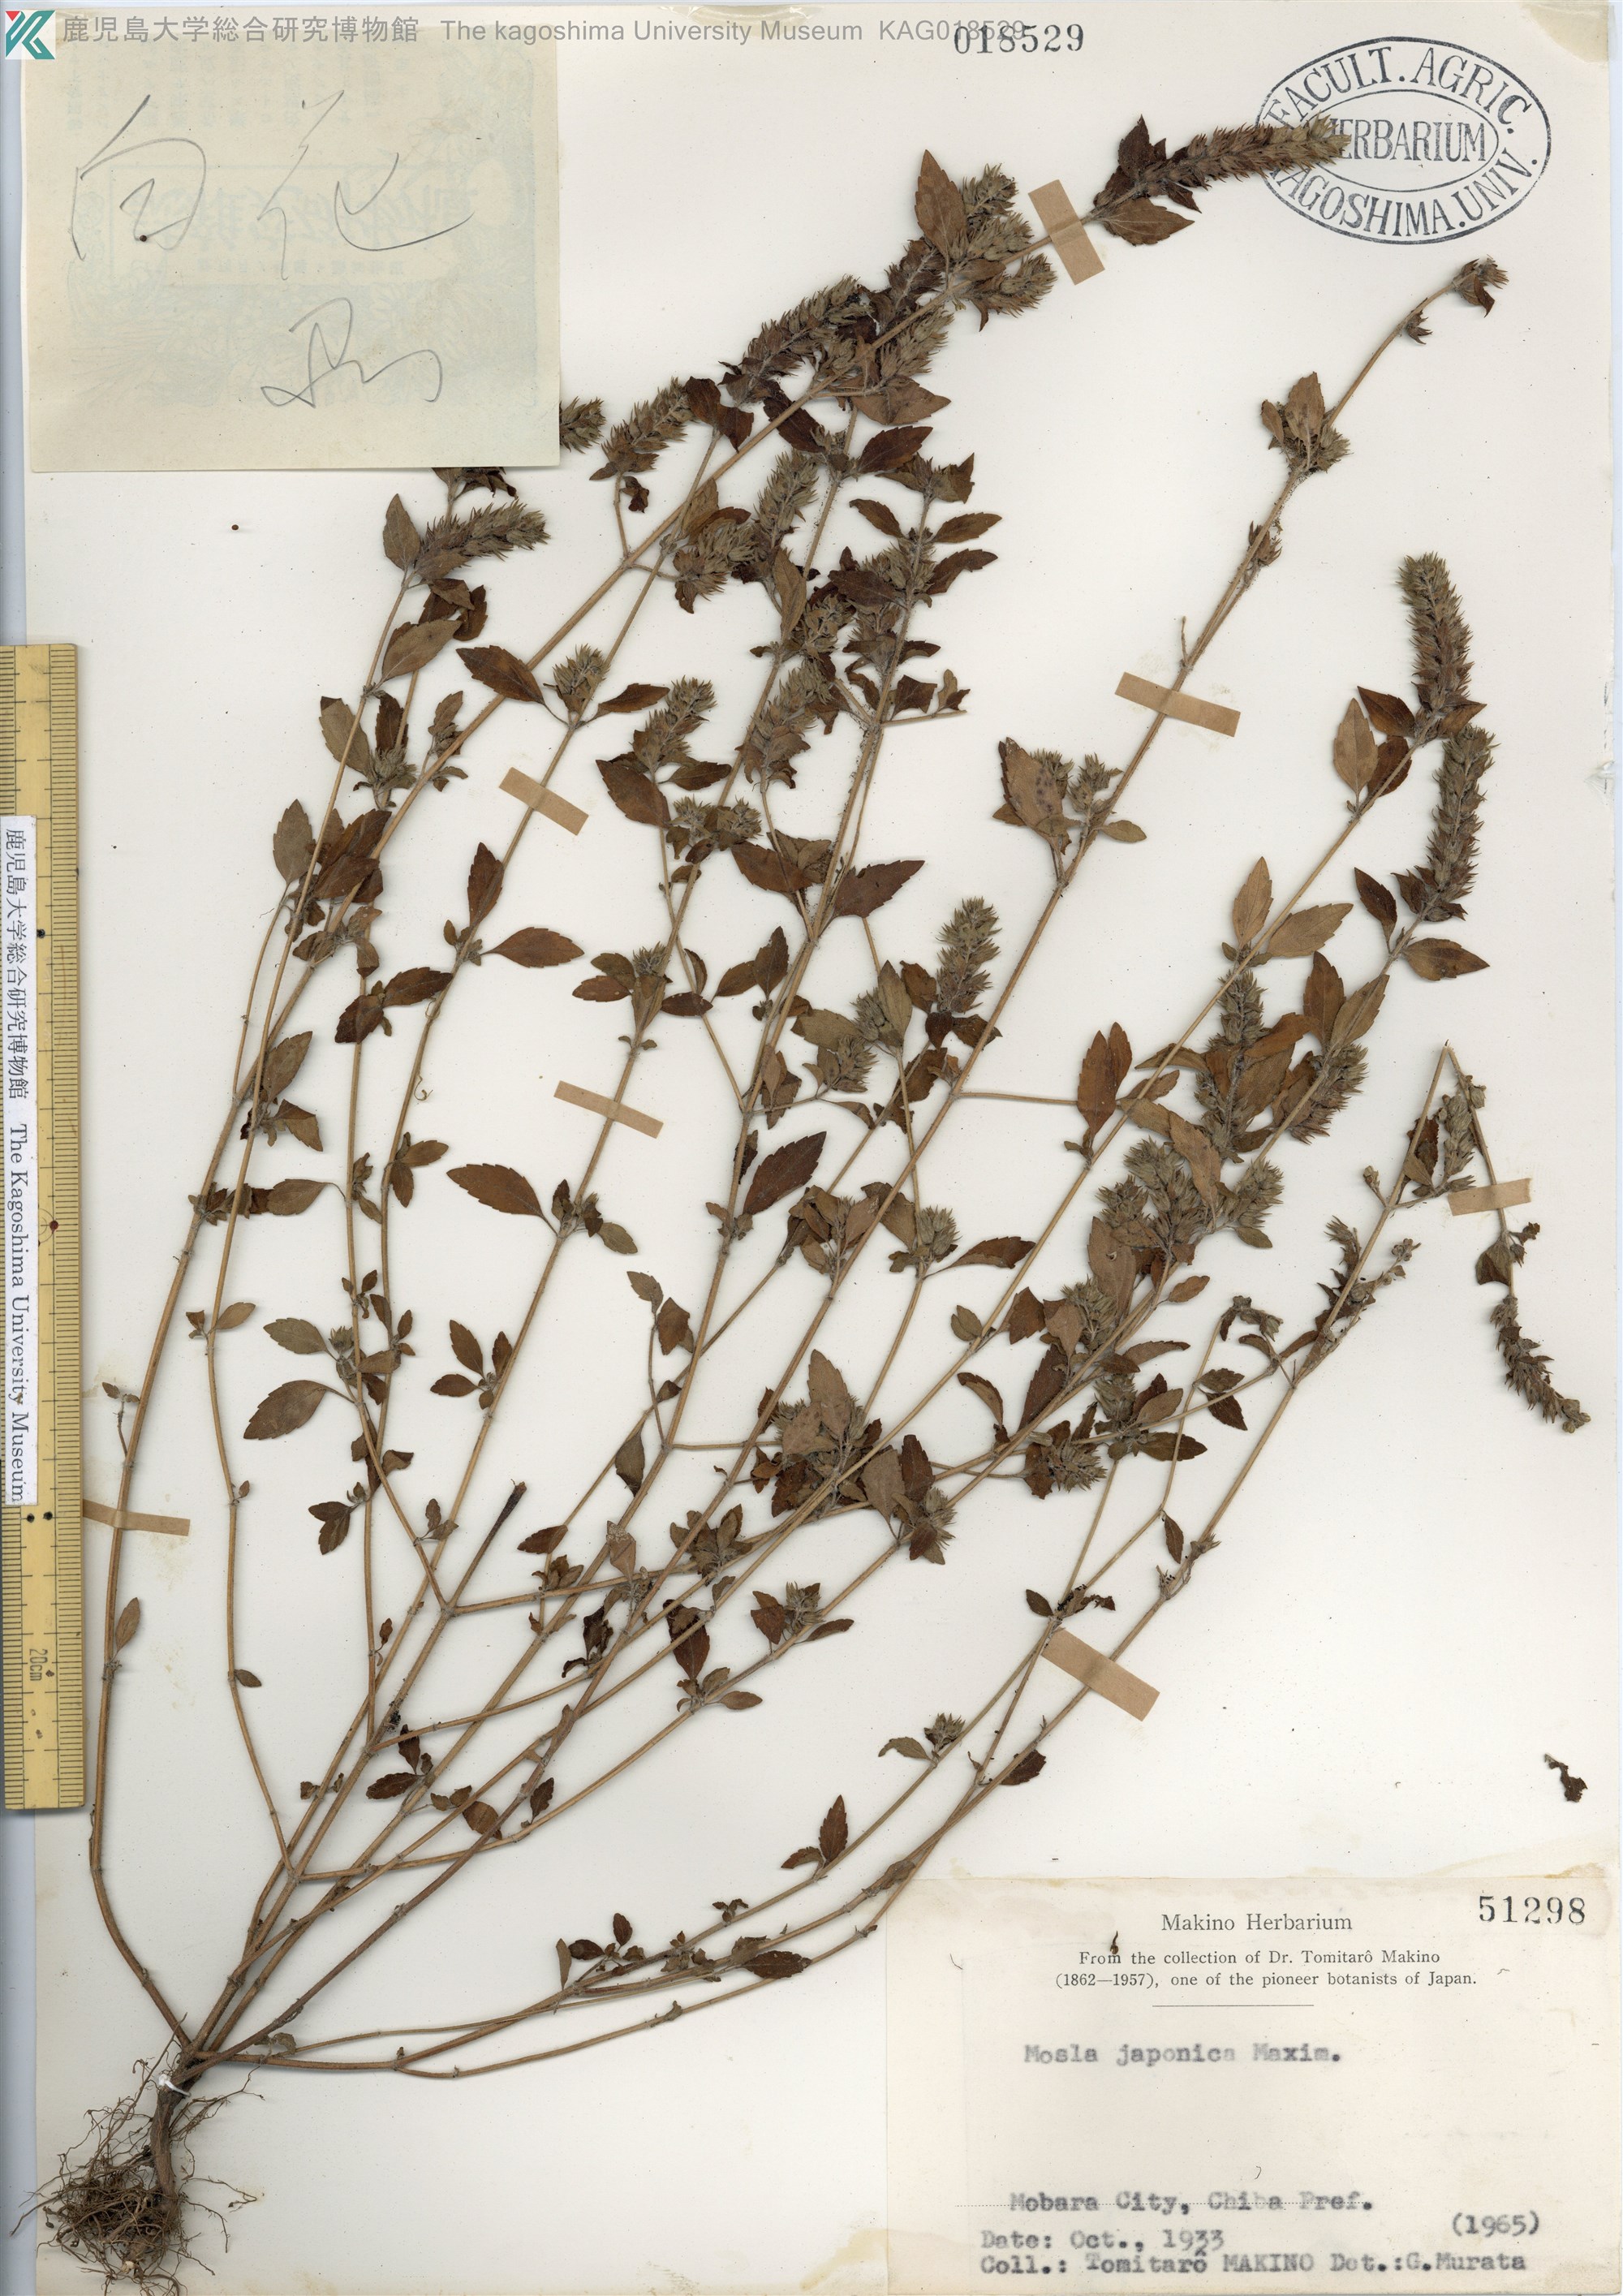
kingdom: Plantae
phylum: Tracheophyta
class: Magnoliopsida
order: Lamiales
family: Lamiaceae
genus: Mosla
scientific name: Mosla japonica
